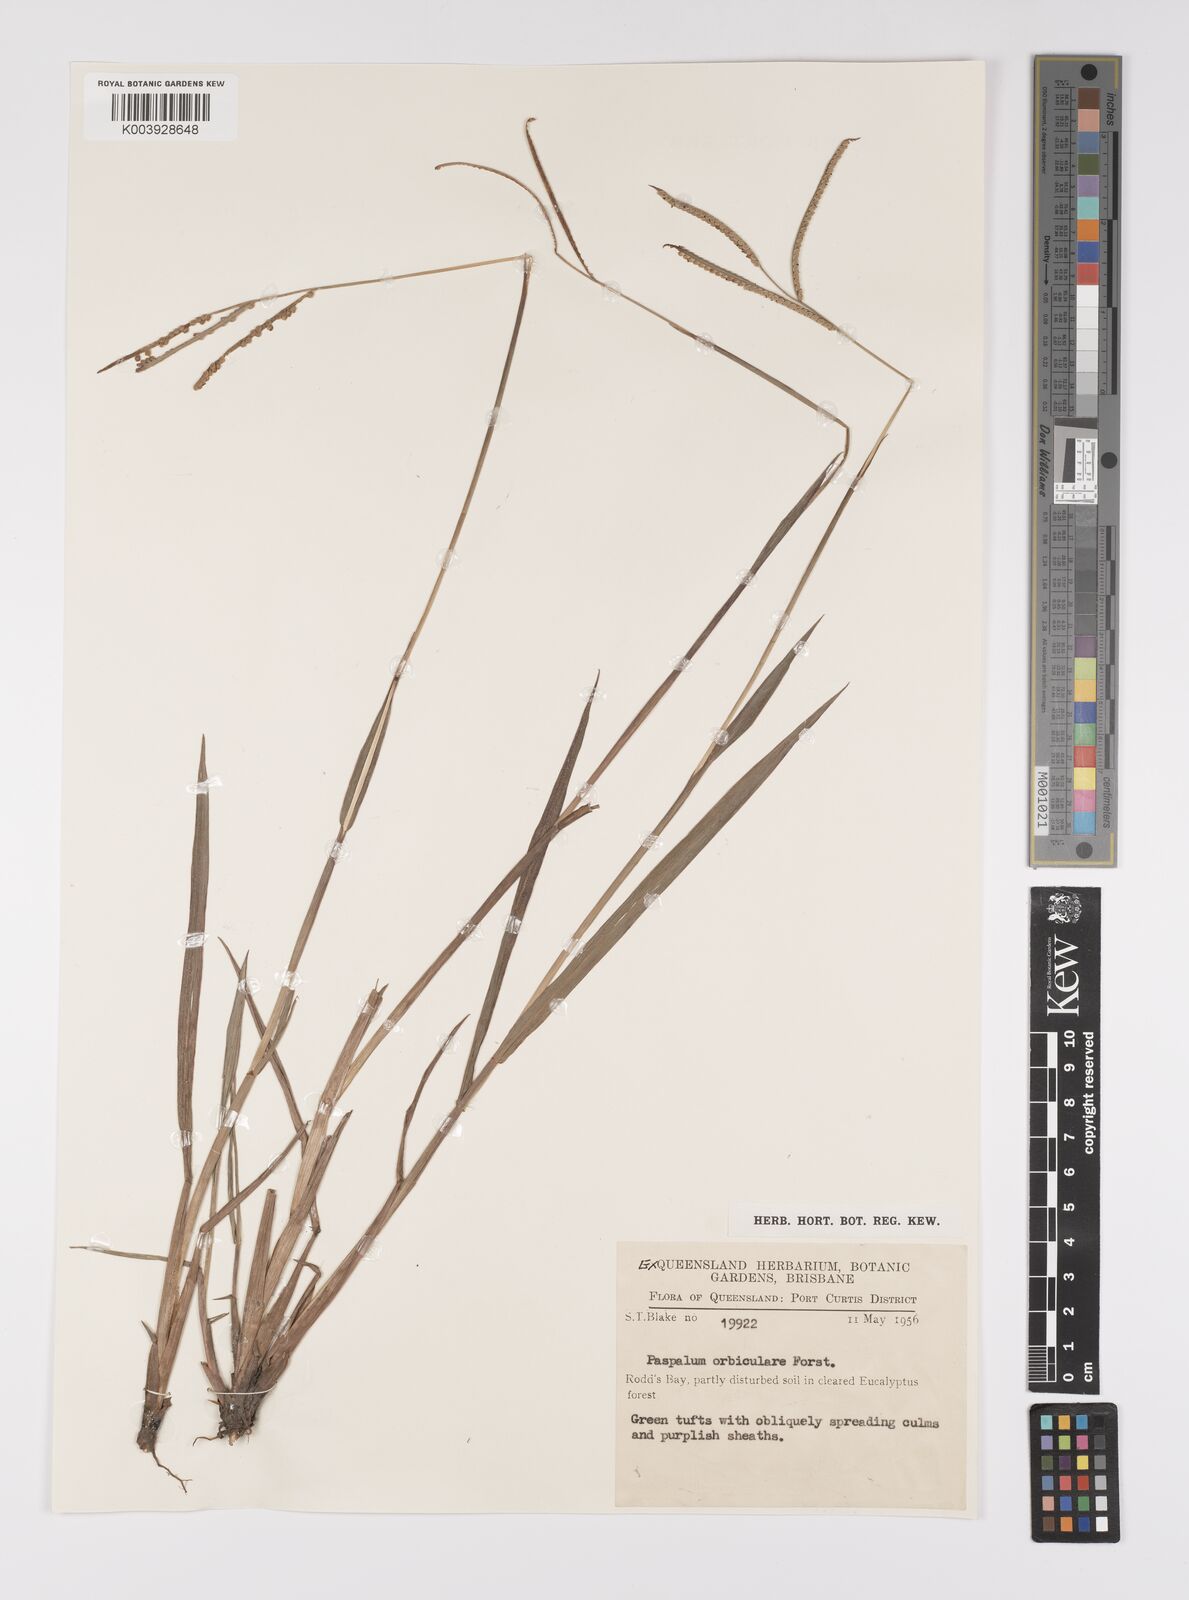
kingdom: Plantae
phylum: Tracheophyta
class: Liliopsida
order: Poales
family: Poaceae
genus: Paspalum
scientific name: Paspalum scrobiculatum
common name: Kodo millet
